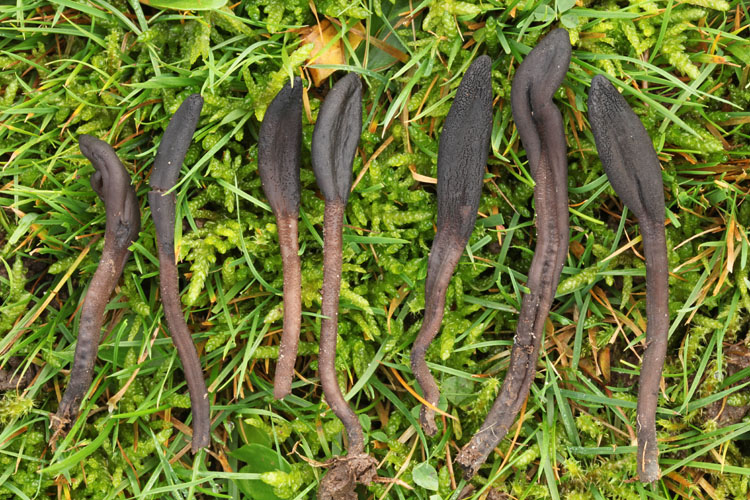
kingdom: Fungi
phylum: Ascomycota
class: Geoglossomycetes
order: Geoglossales
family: Geoglossaceae
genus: Geoglossum
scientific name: Geoglossum fallax
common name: småskællet jordtunge
